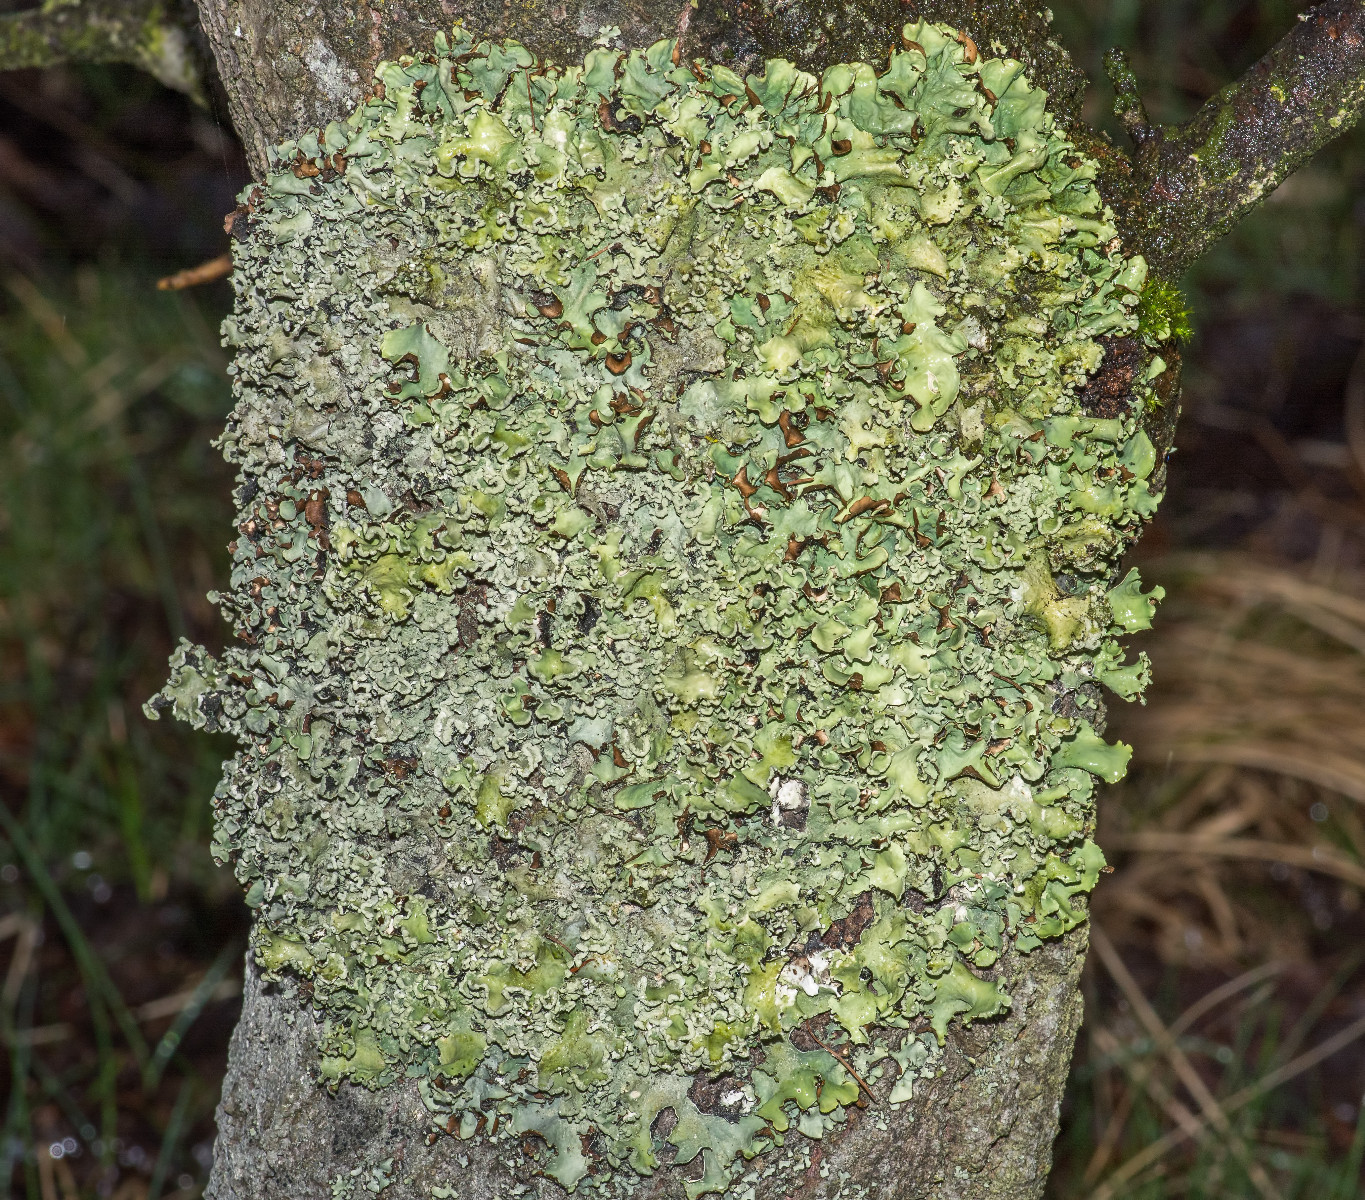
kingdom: Fungi
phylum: Ascomycota
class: Lecanoromycetes
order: Lecanorales
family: Parmeliaceae
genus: Parmotrema
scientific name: Parmotrema perlatum
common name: trådet skållav
